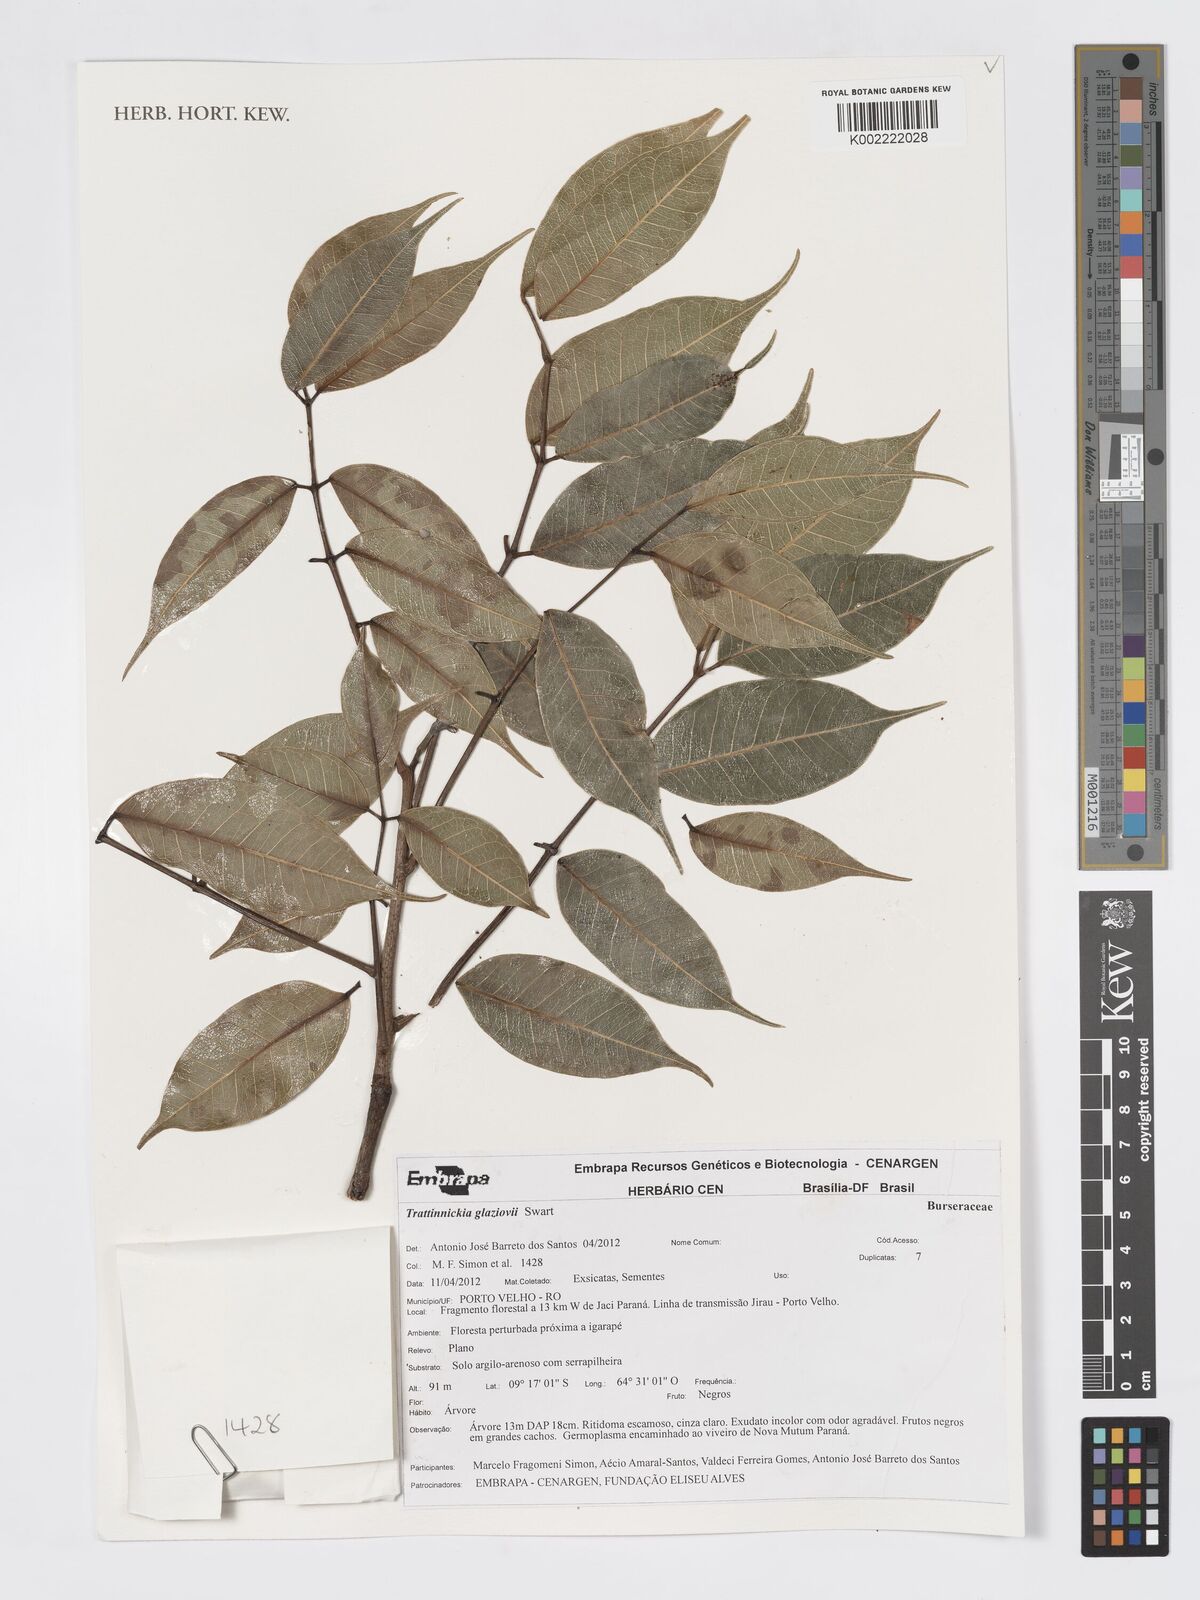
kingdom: Plantae
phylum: Tracheophyta
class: Magnoliopsida
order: Sapindales
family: Burseraceae
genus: Trattinnickia
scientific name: Trattinnickia glaziovii
